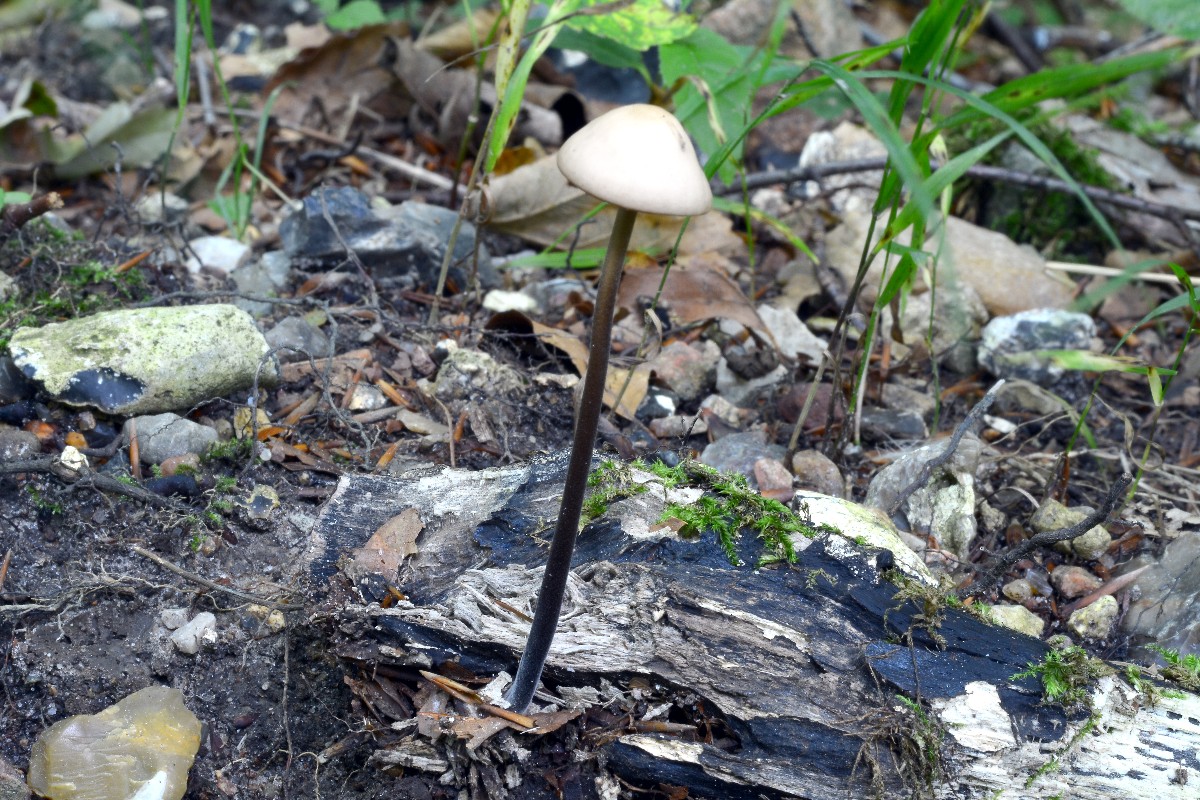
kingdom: Fungi
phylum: Basidiomycota
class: Agaricomycetes
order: Agaricales
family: Omphalotaceae
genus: Mycetinis
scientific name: Mycetinis alliaceus
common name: stor løghat
